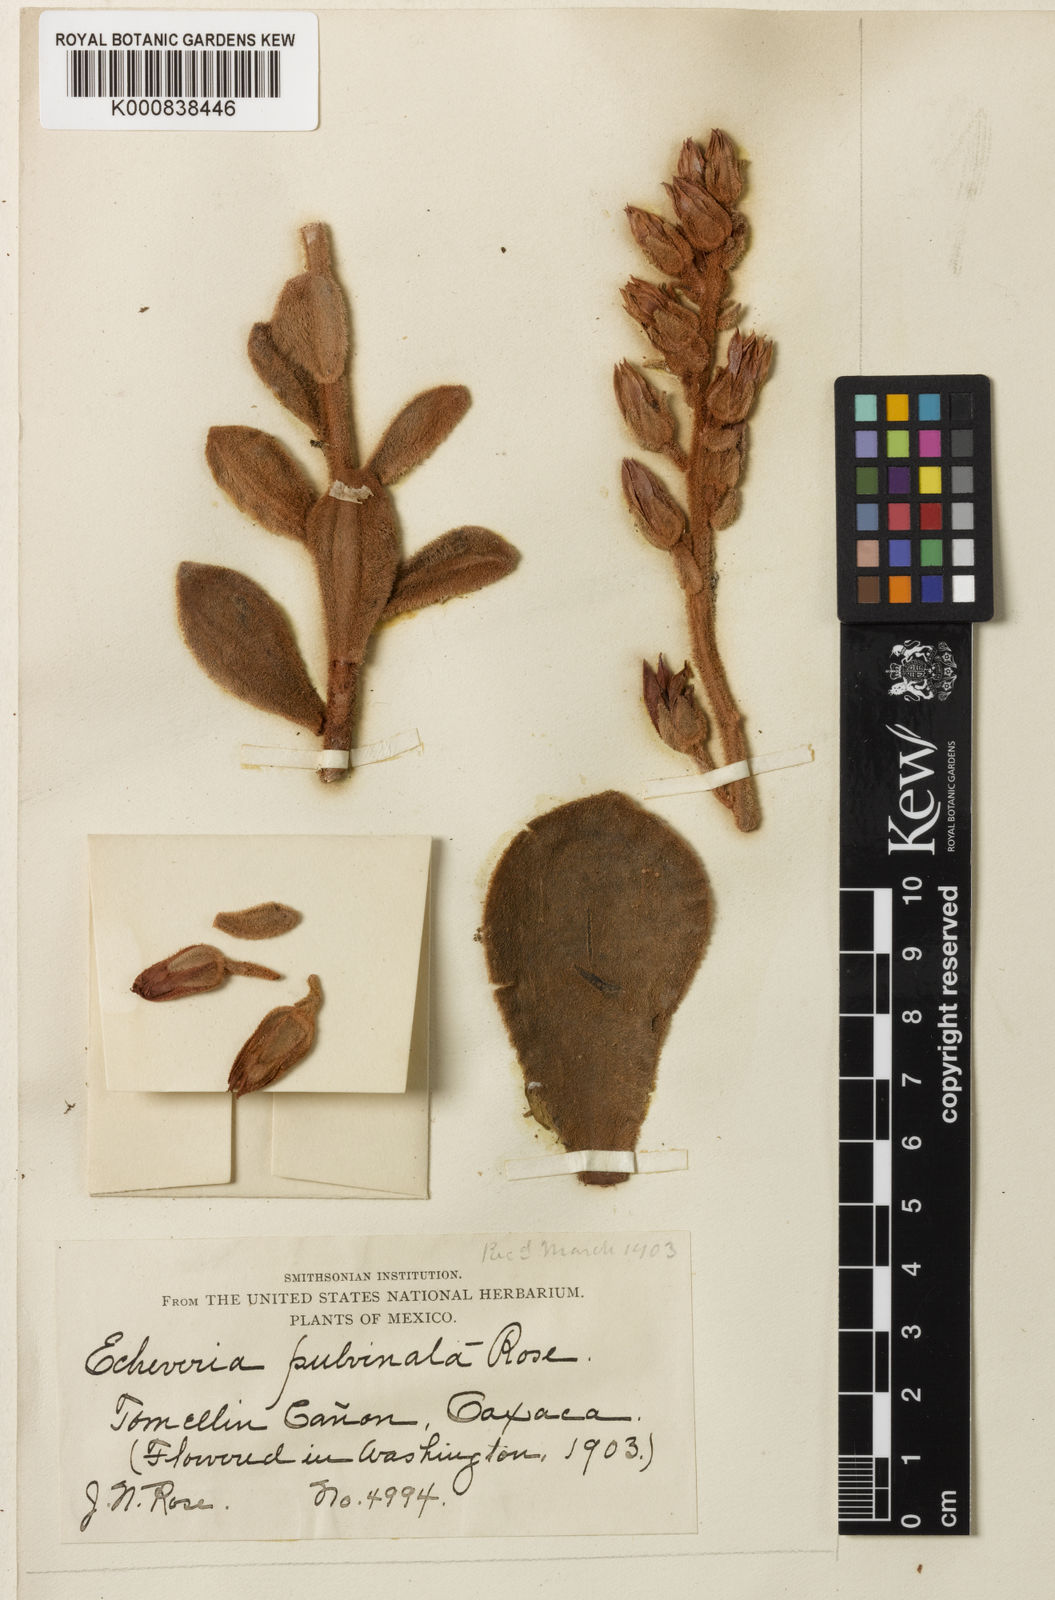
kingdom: Plantae
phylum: Tracheophyta
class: Magnoliopsida
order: Saxifragales
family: Crassulaceae
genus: Echeveria
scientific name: Echeveria pulvinata
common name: Chenilleplant
